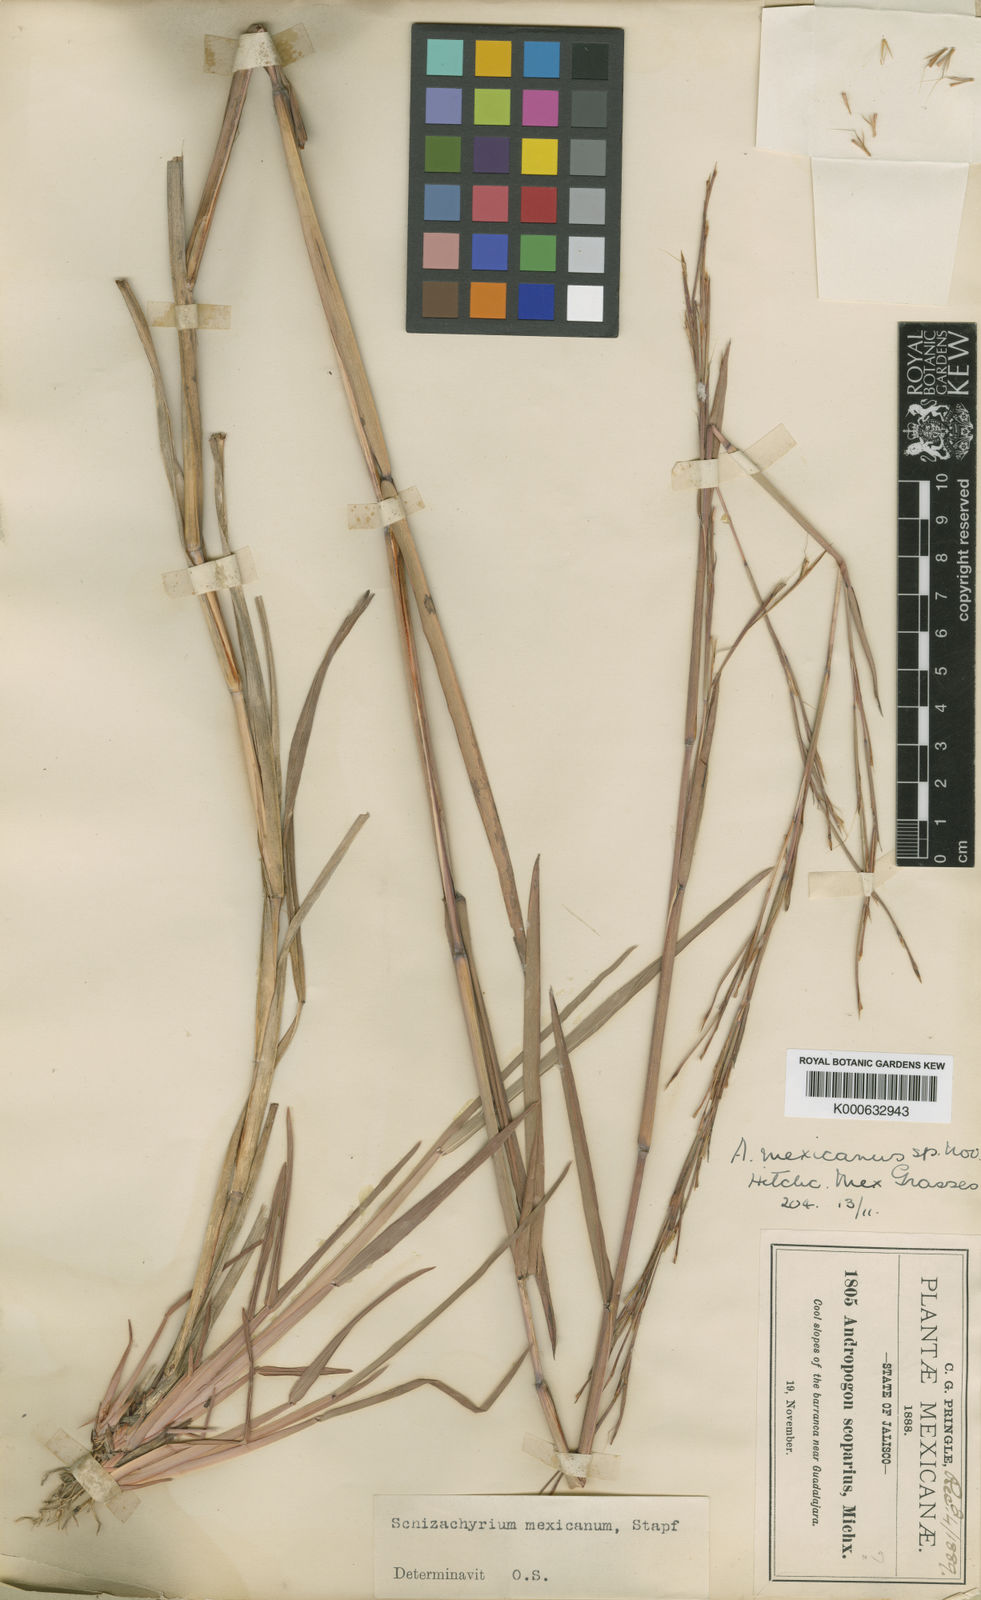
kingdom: Plantae
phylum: Tracheophyta
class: Liliopsida
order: Poales
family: Poaceae
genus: Schizachyrium
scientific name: Schizachyrium
